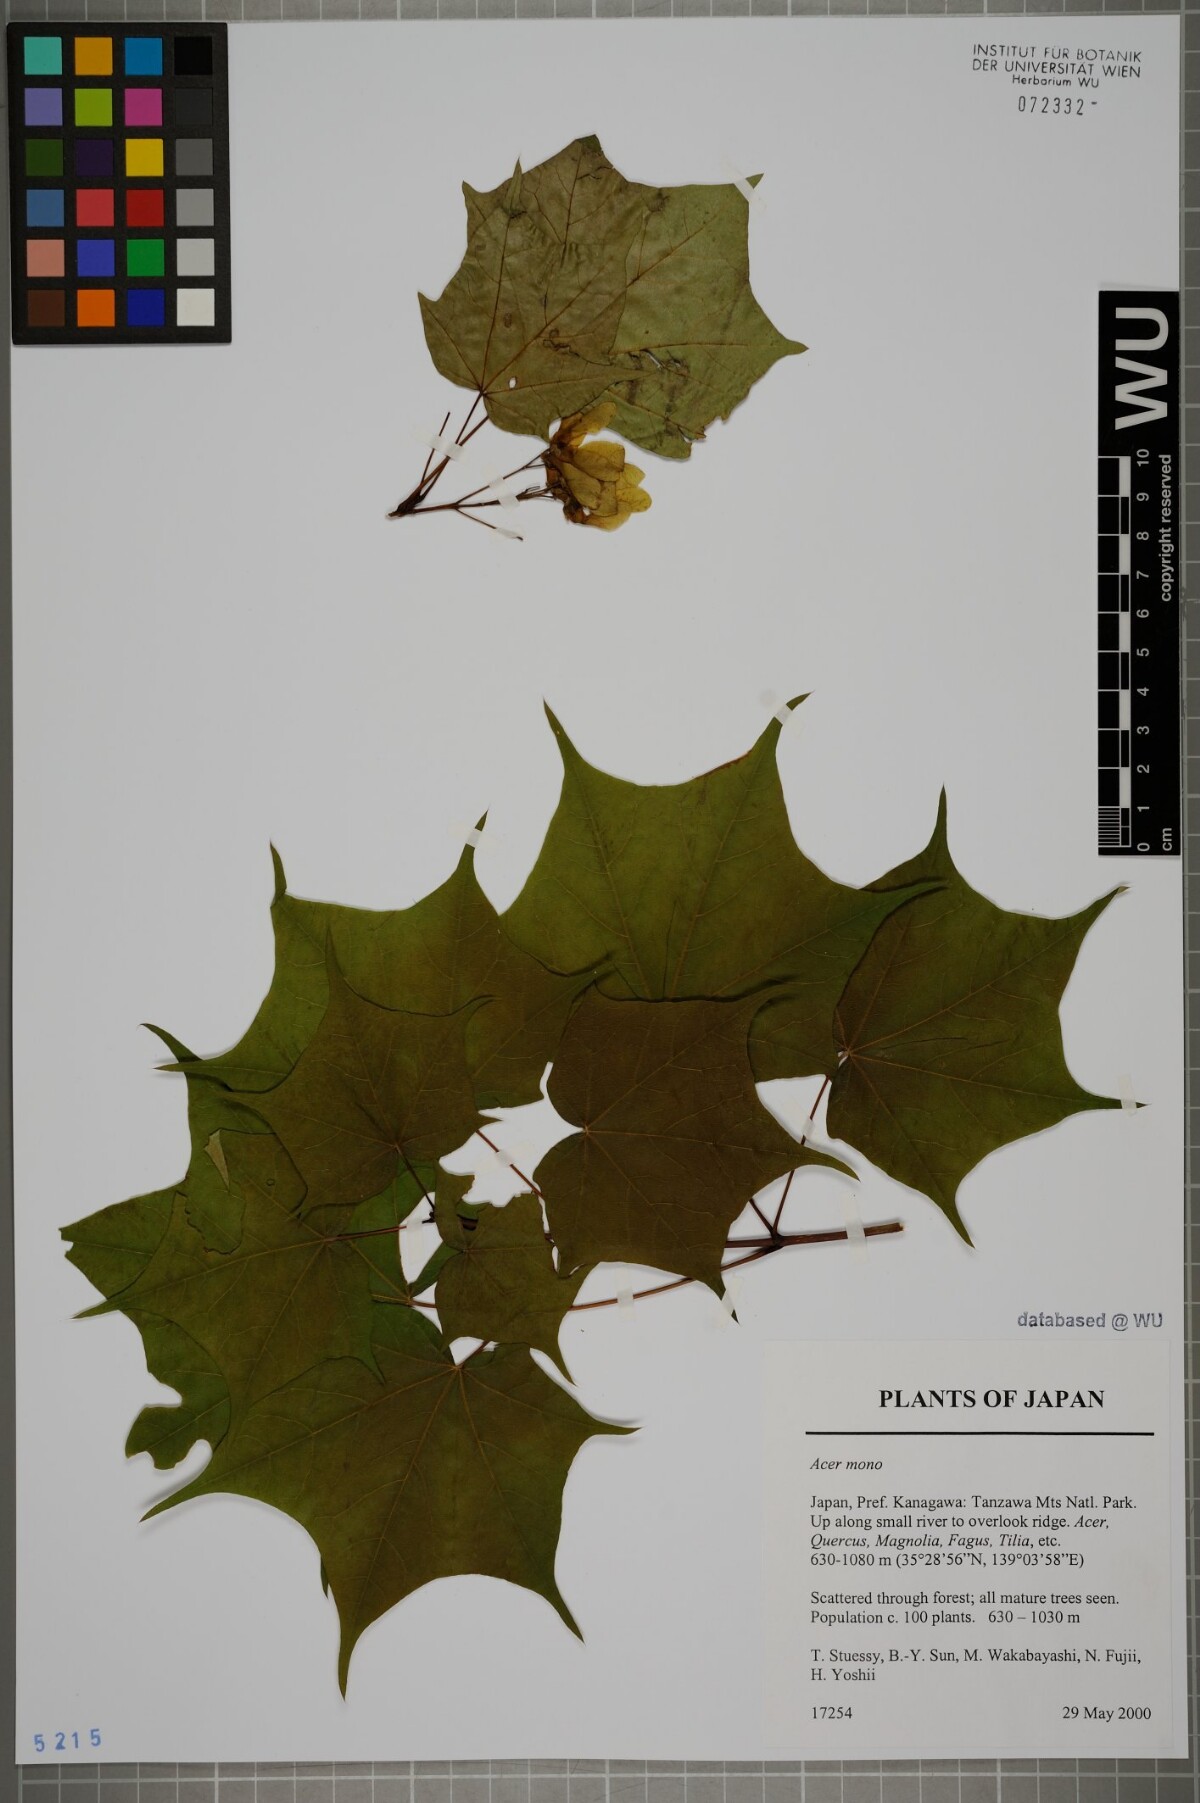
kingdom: Plantae
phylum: Tracheophyta
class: Magnoliopsida
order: Sapindales
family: Sapindaceae
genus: Acer
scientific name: Acer pictum
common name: The painted maple
